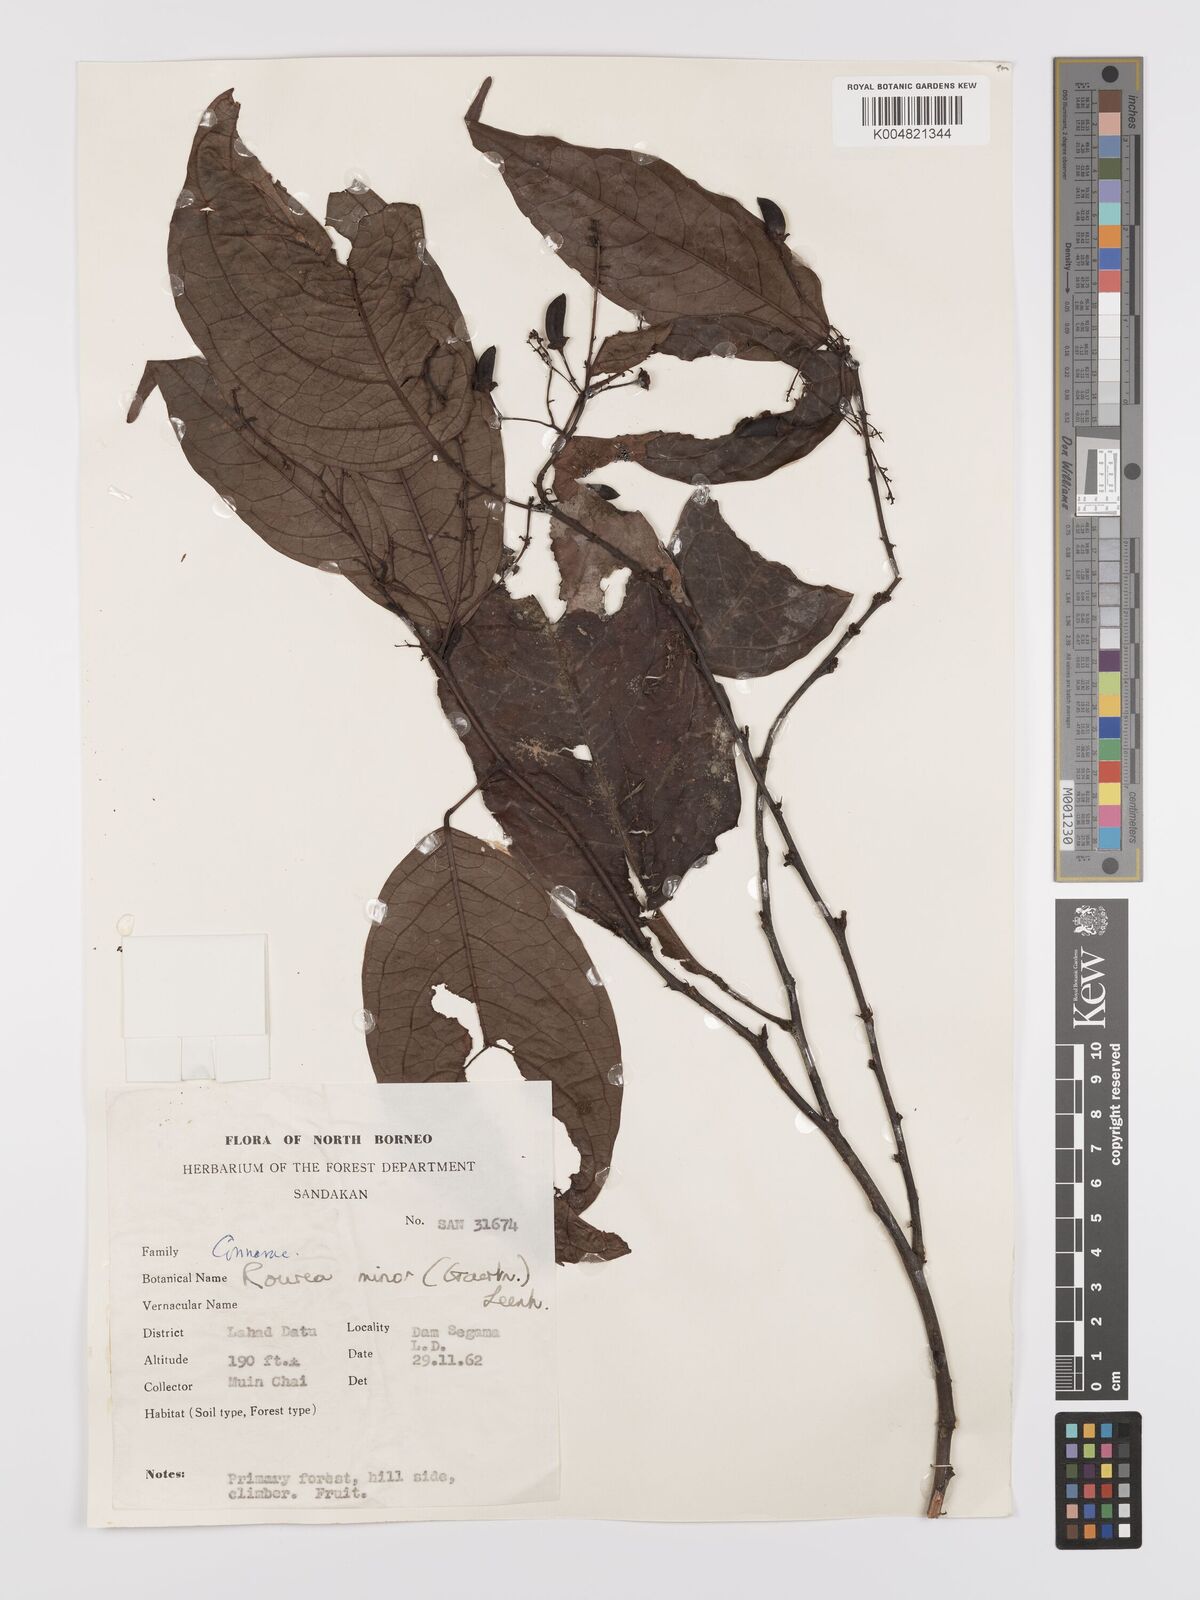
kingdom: Plantae
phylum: Tracheophyta
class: Magnoliopsida
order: Oxalidales
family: Connaraceae
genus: Rourea
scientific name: Rourea minor
